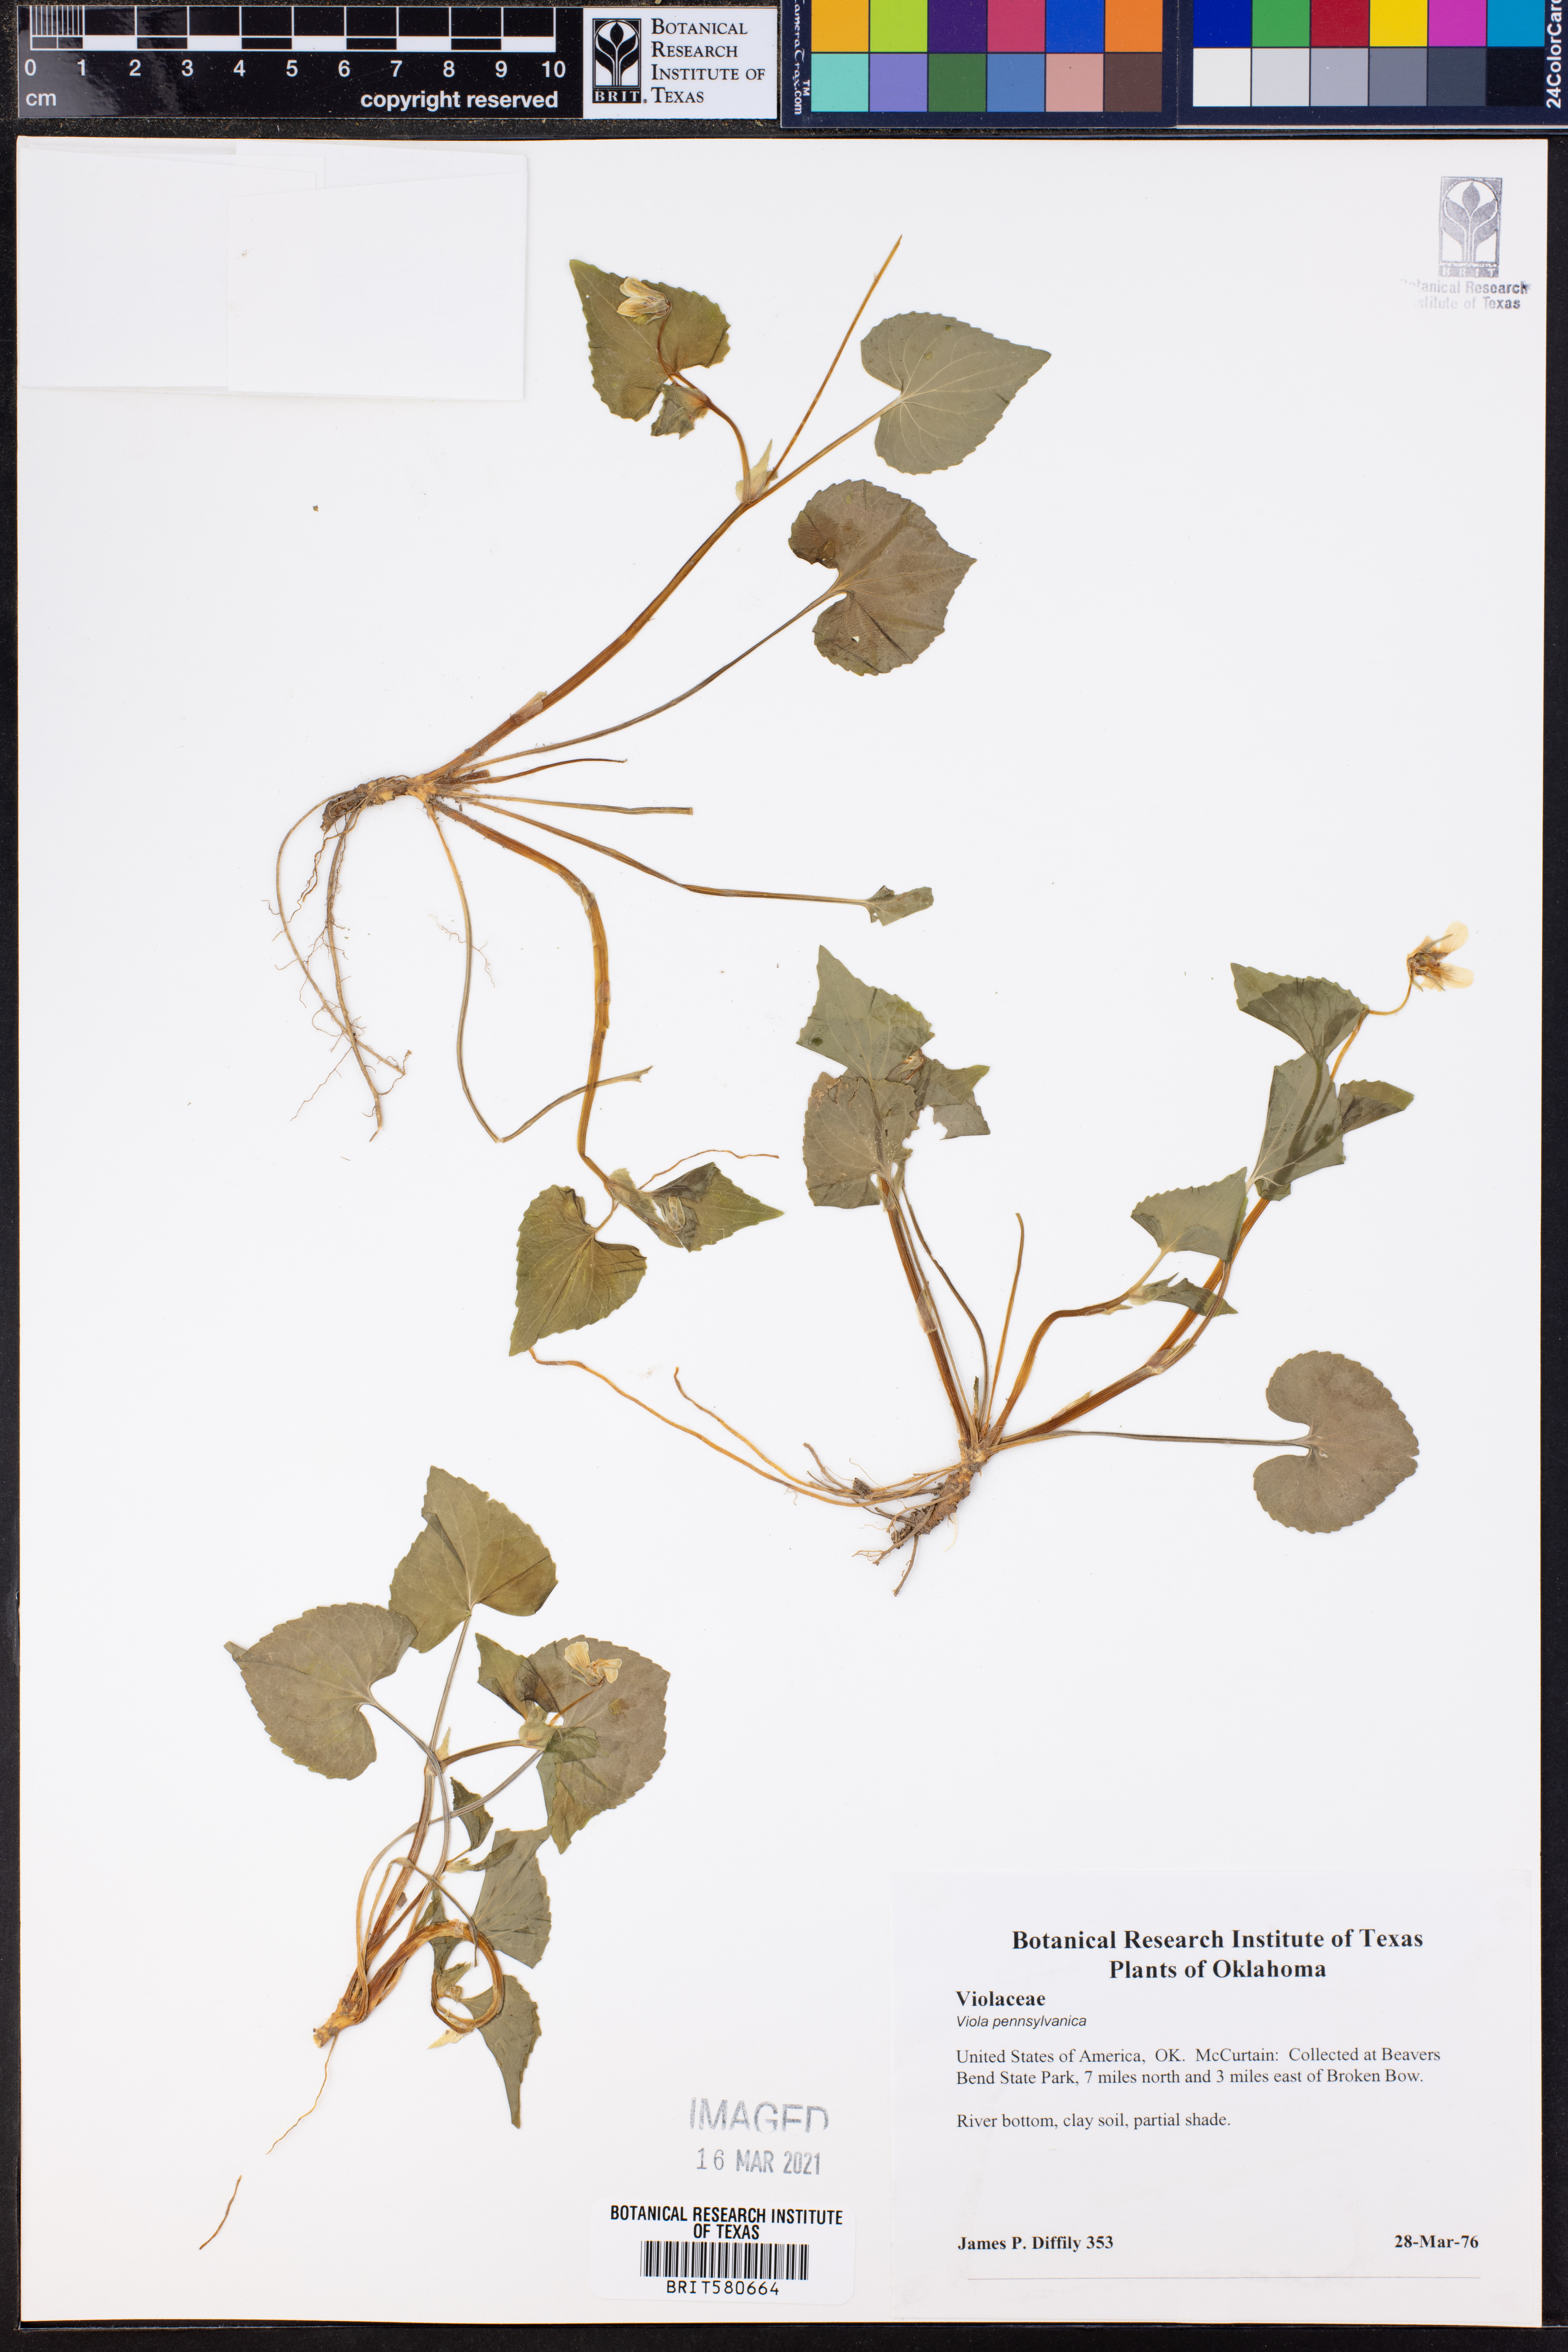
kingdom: Plantae
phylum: Tracheophyta
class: Magnoliopsida
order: Malpighiales
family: Violaceae
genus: Viola
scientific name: Viola pubescens
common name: Yellow forest violet
